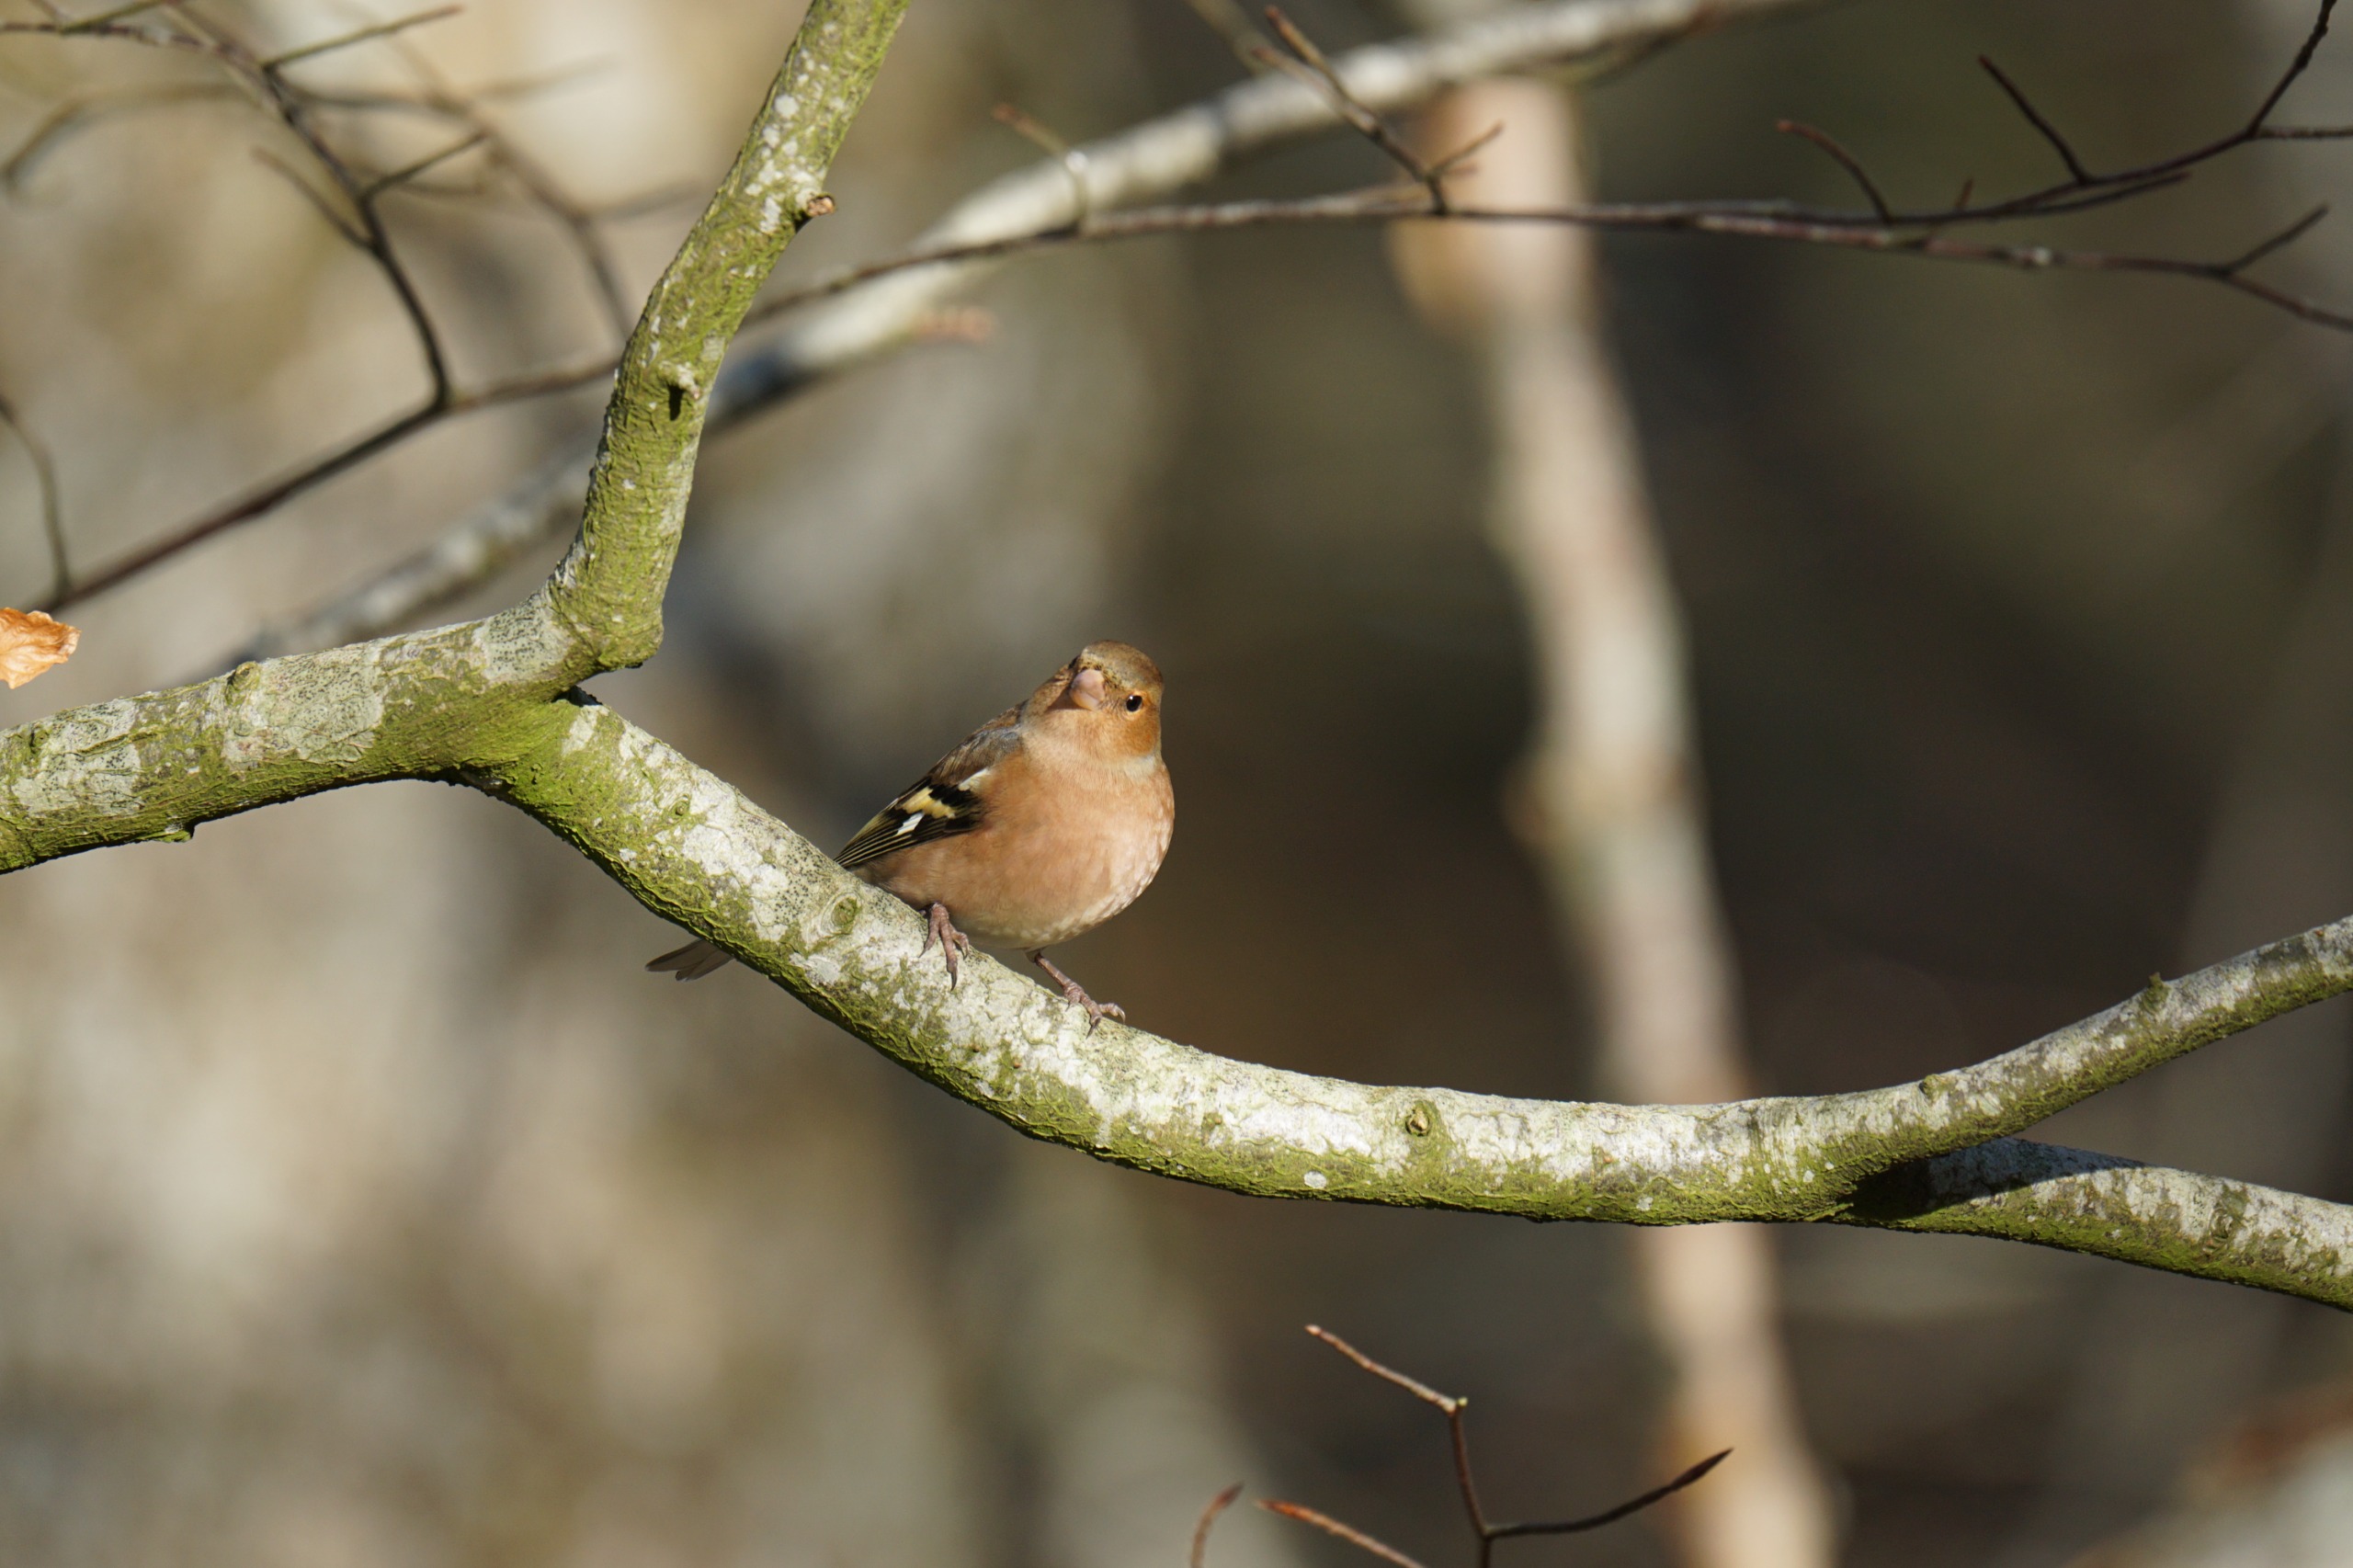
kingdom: Animalia
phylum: Chordata
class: Aves
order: Passeriformes
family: Fringillidae
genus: Fringilla
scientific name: Fringilla coelebs
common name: Bogfinke
